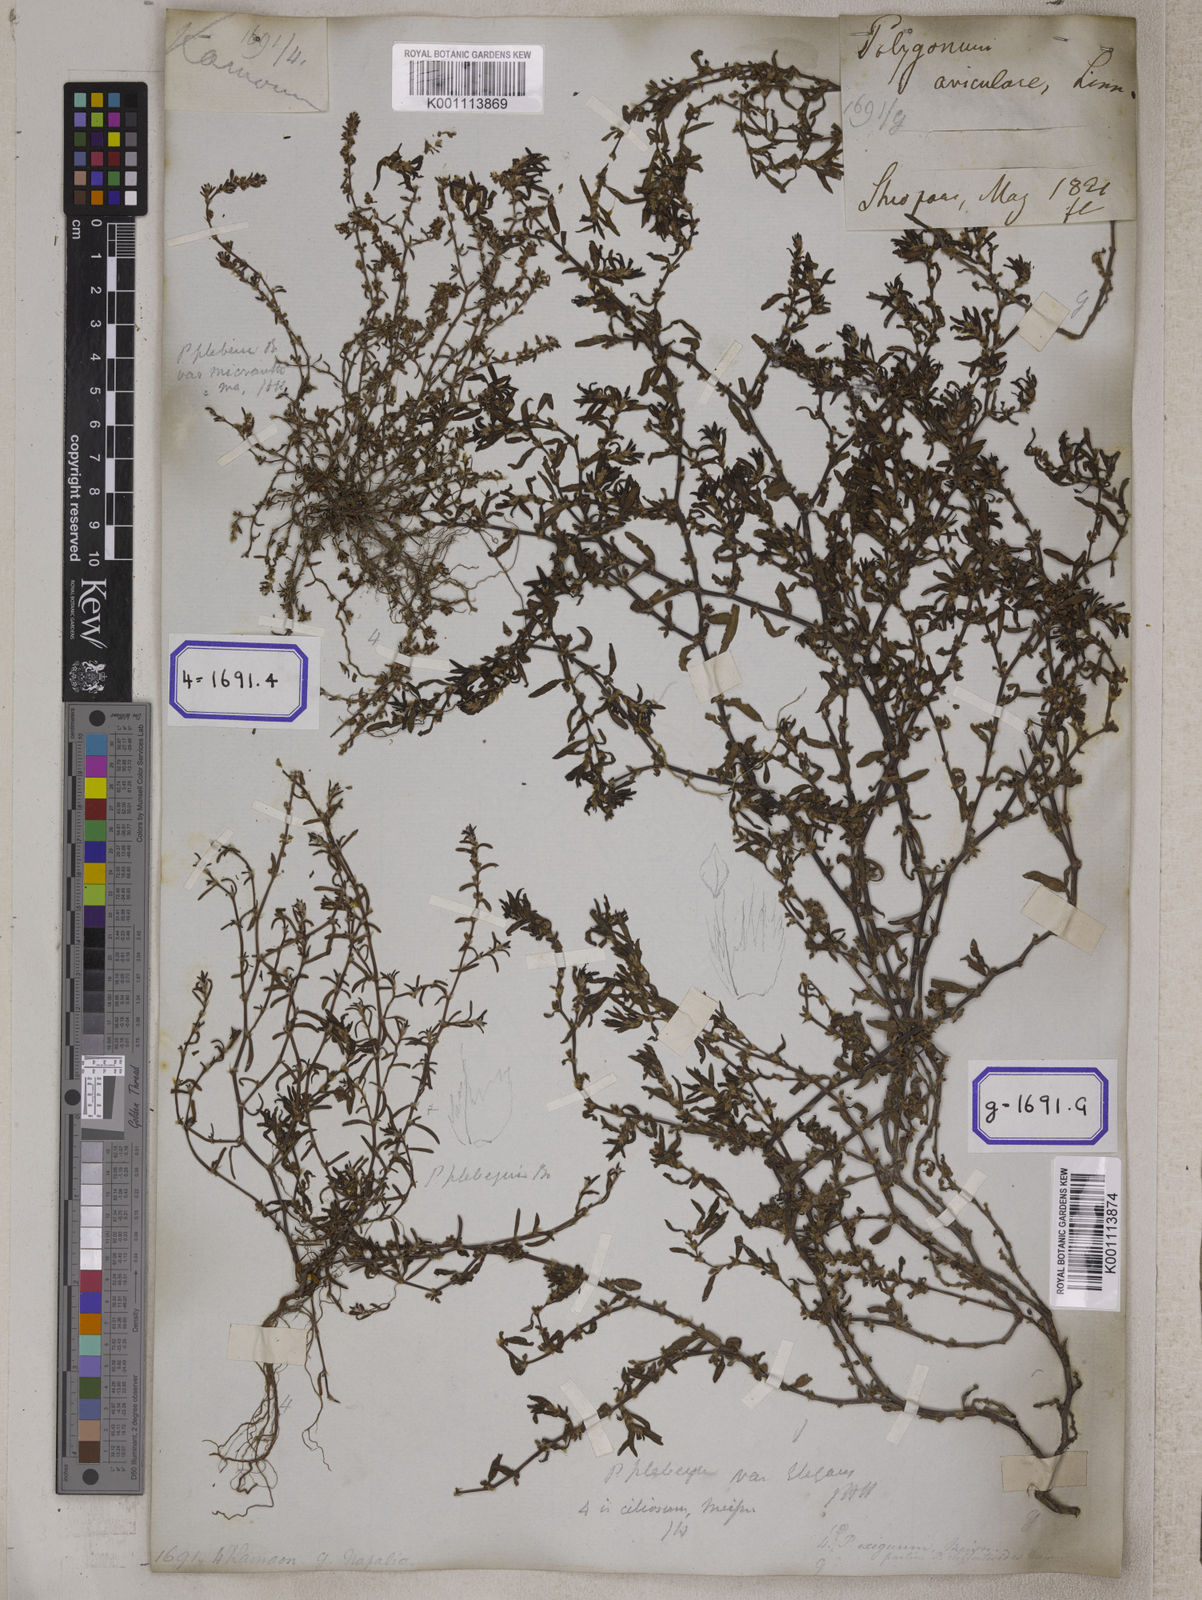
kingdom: Plantae
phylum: Tracheophyta
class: Magnoliopsida
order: Caryophyllales
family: Polygonaceae
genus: Polygonum
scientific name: Polygonum plebeium
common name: Common knotweed
